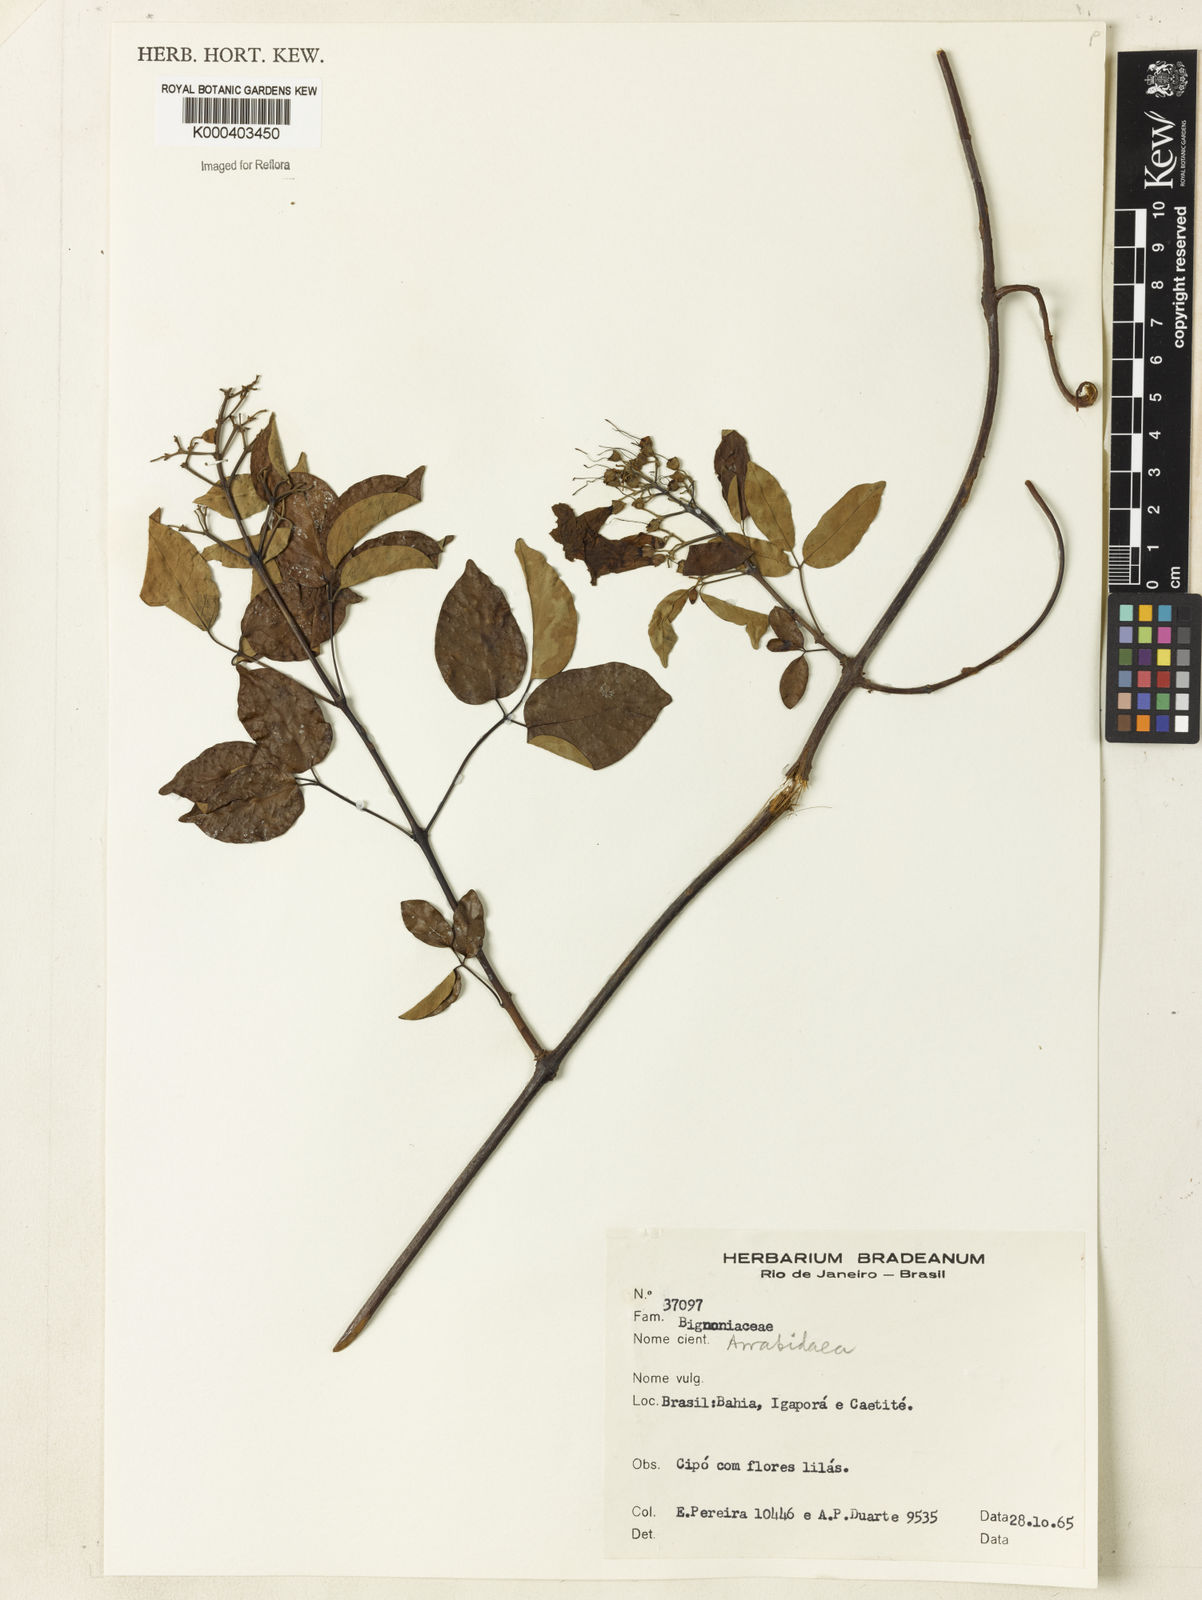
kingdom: Plantae
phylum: Tracheophyta
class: Magnoliopsida
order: Rosales
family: Rhamnaceae
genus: Arrabidaea
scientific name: Arrabidaea
